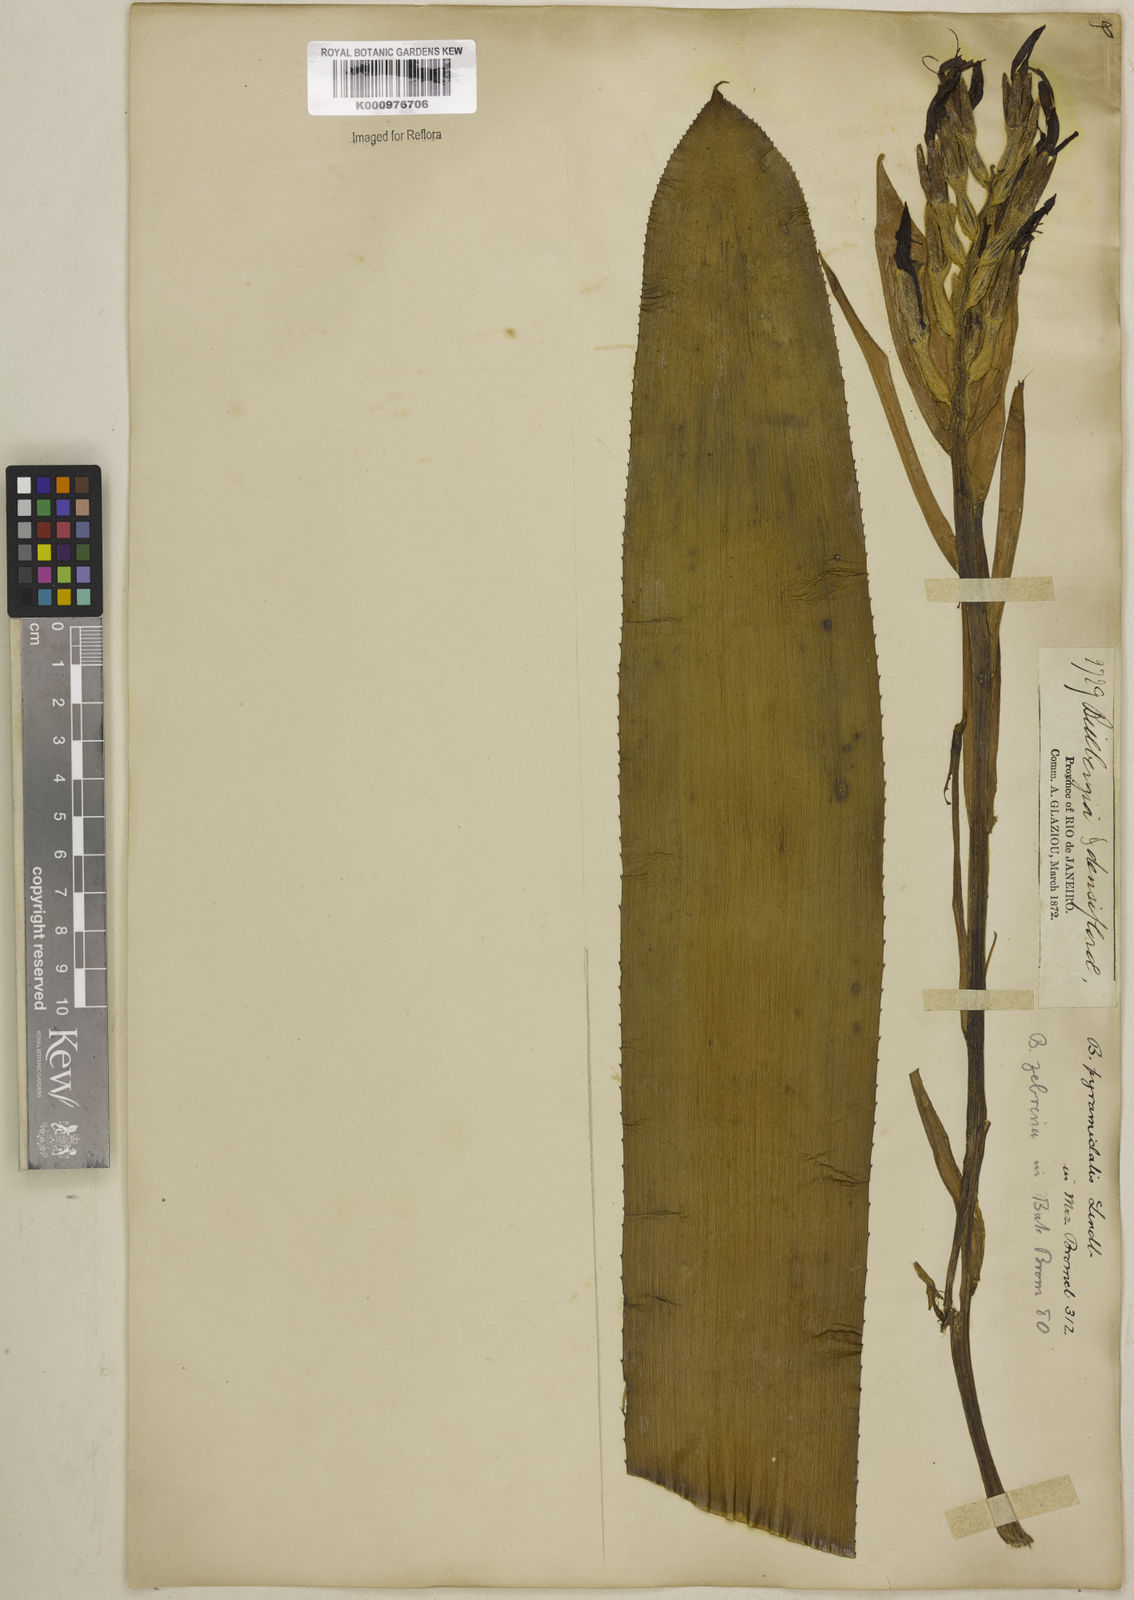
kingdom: Plantae
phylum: Tracheophyta
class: Liliopsida
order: Poales
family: Bromeliaceae
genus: Billbergia
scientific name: Billbergia pyramidalis
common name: Foolproofplant
